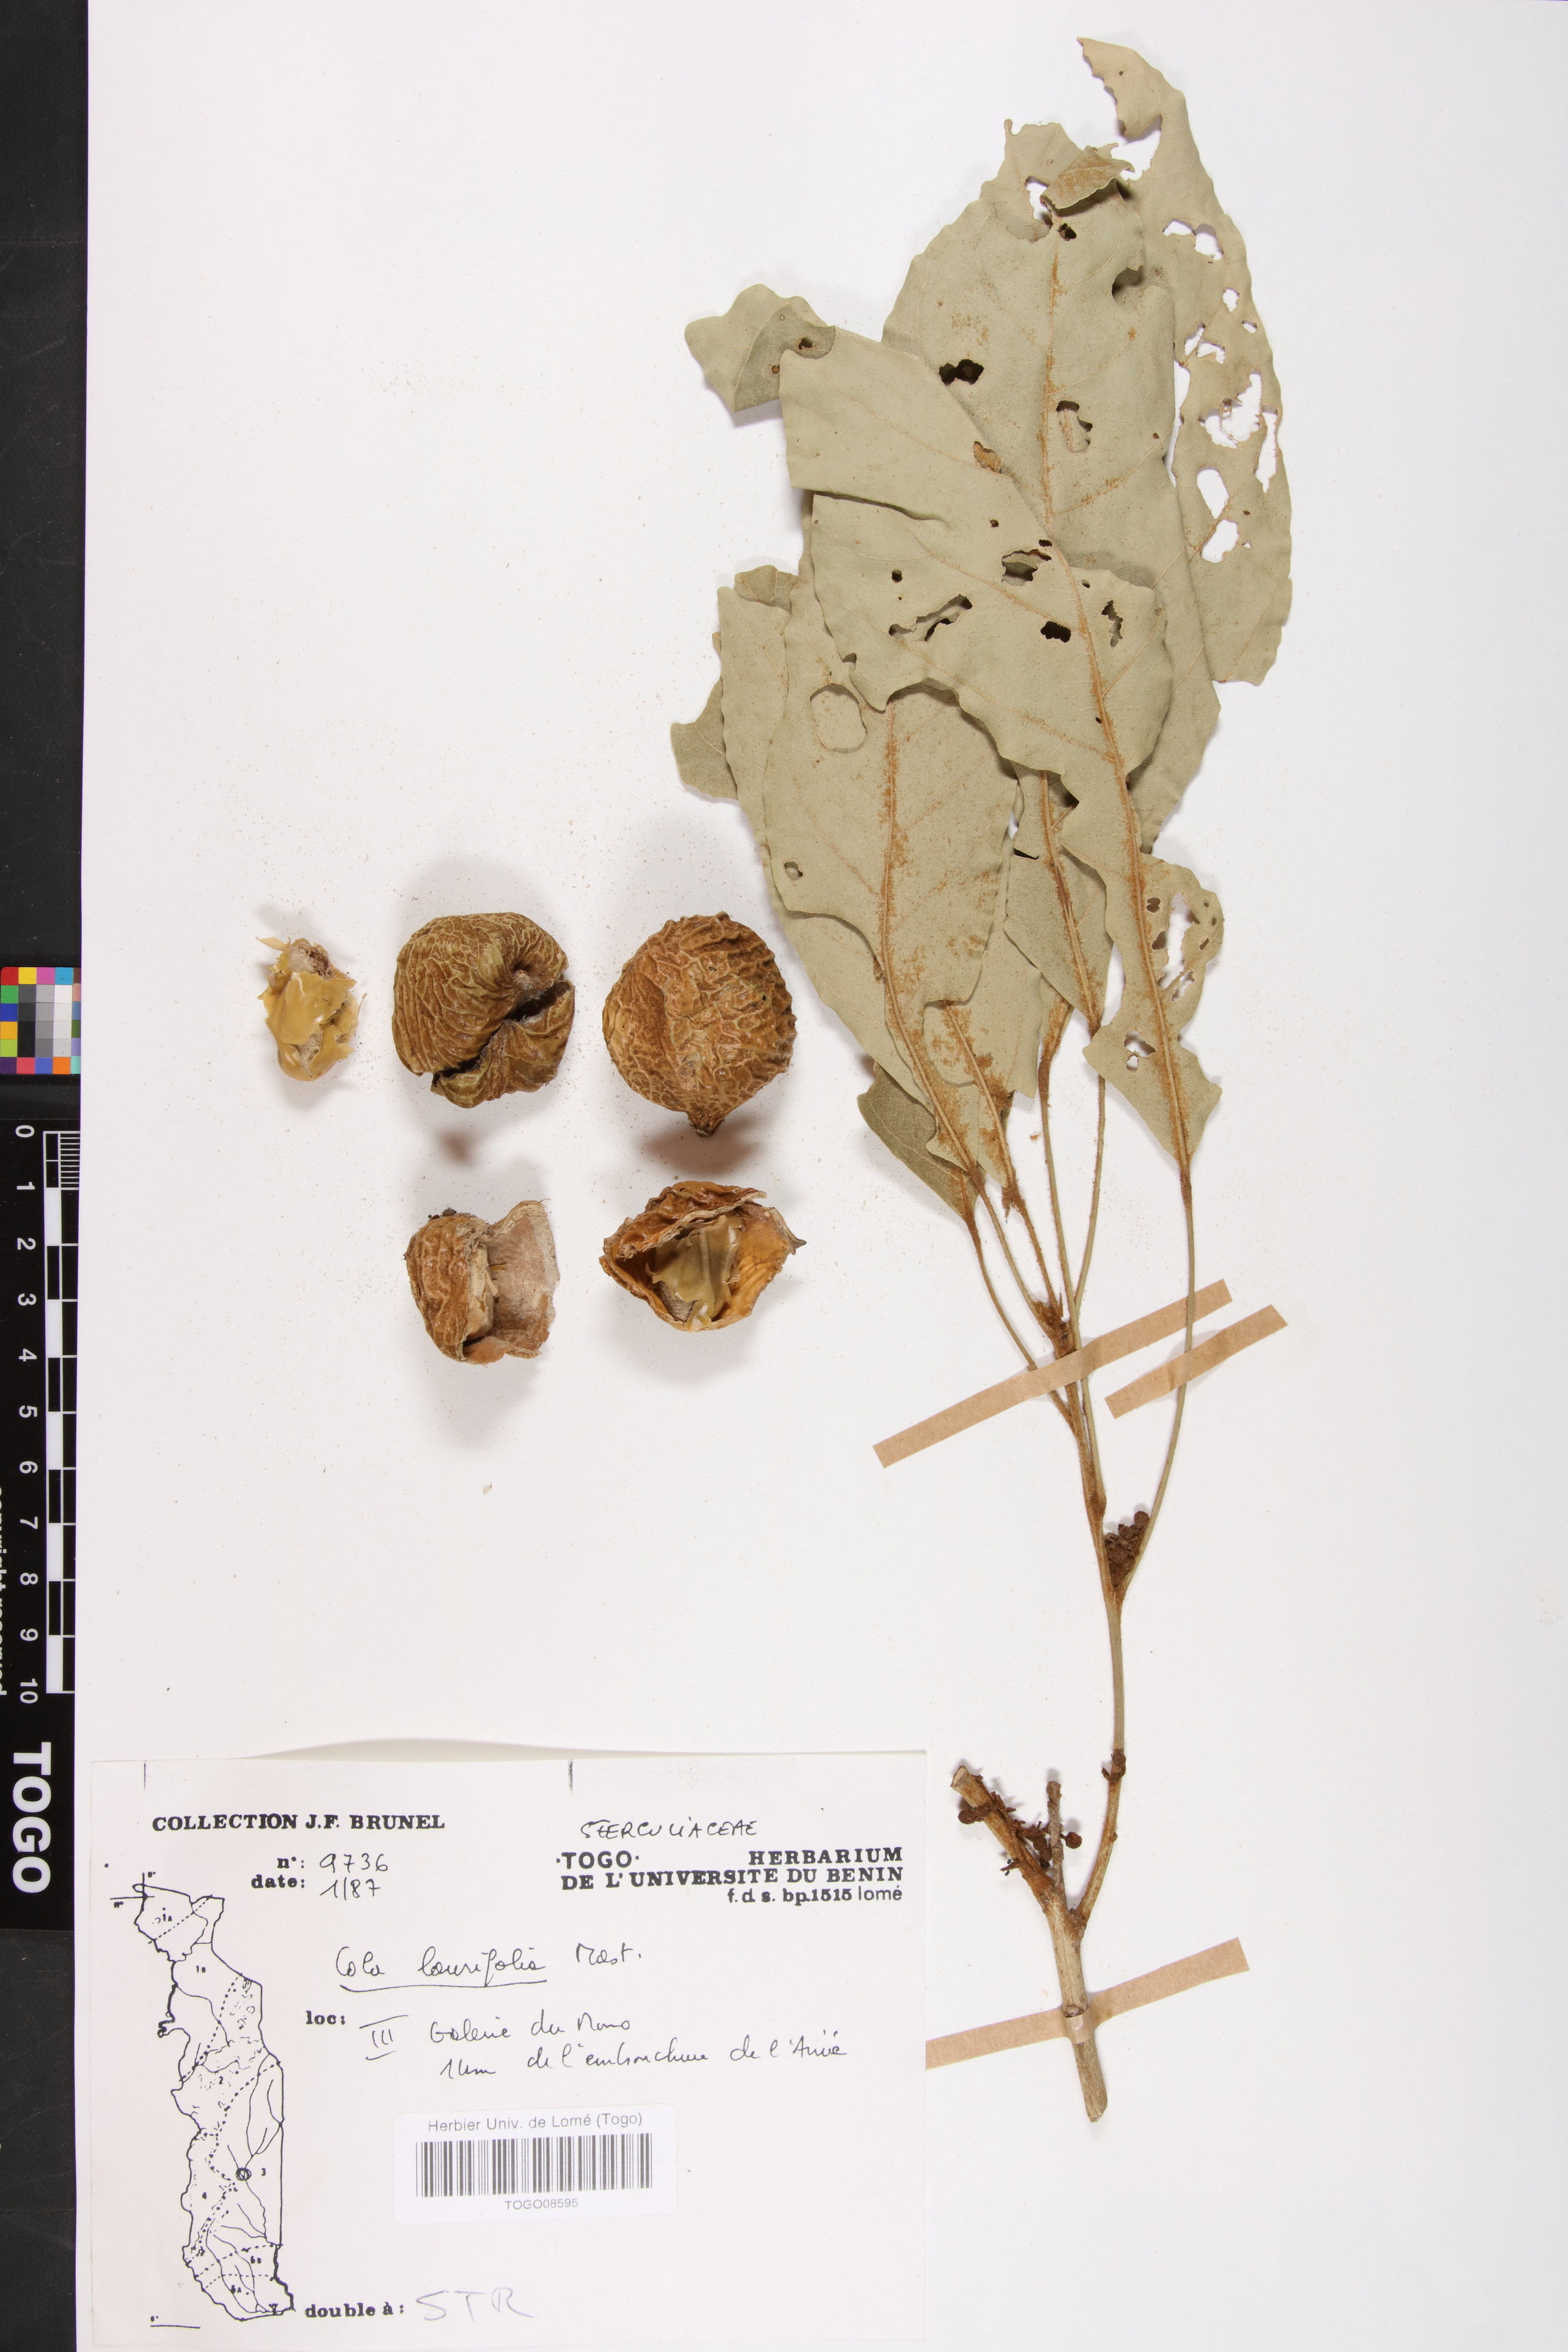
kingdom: Plantae
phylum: Tracheophyta
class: Magnoliopsida
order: Malvales
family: Malvaceae
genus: Cola
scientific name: Cola laurifolia
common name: Laurel-leaved kola
